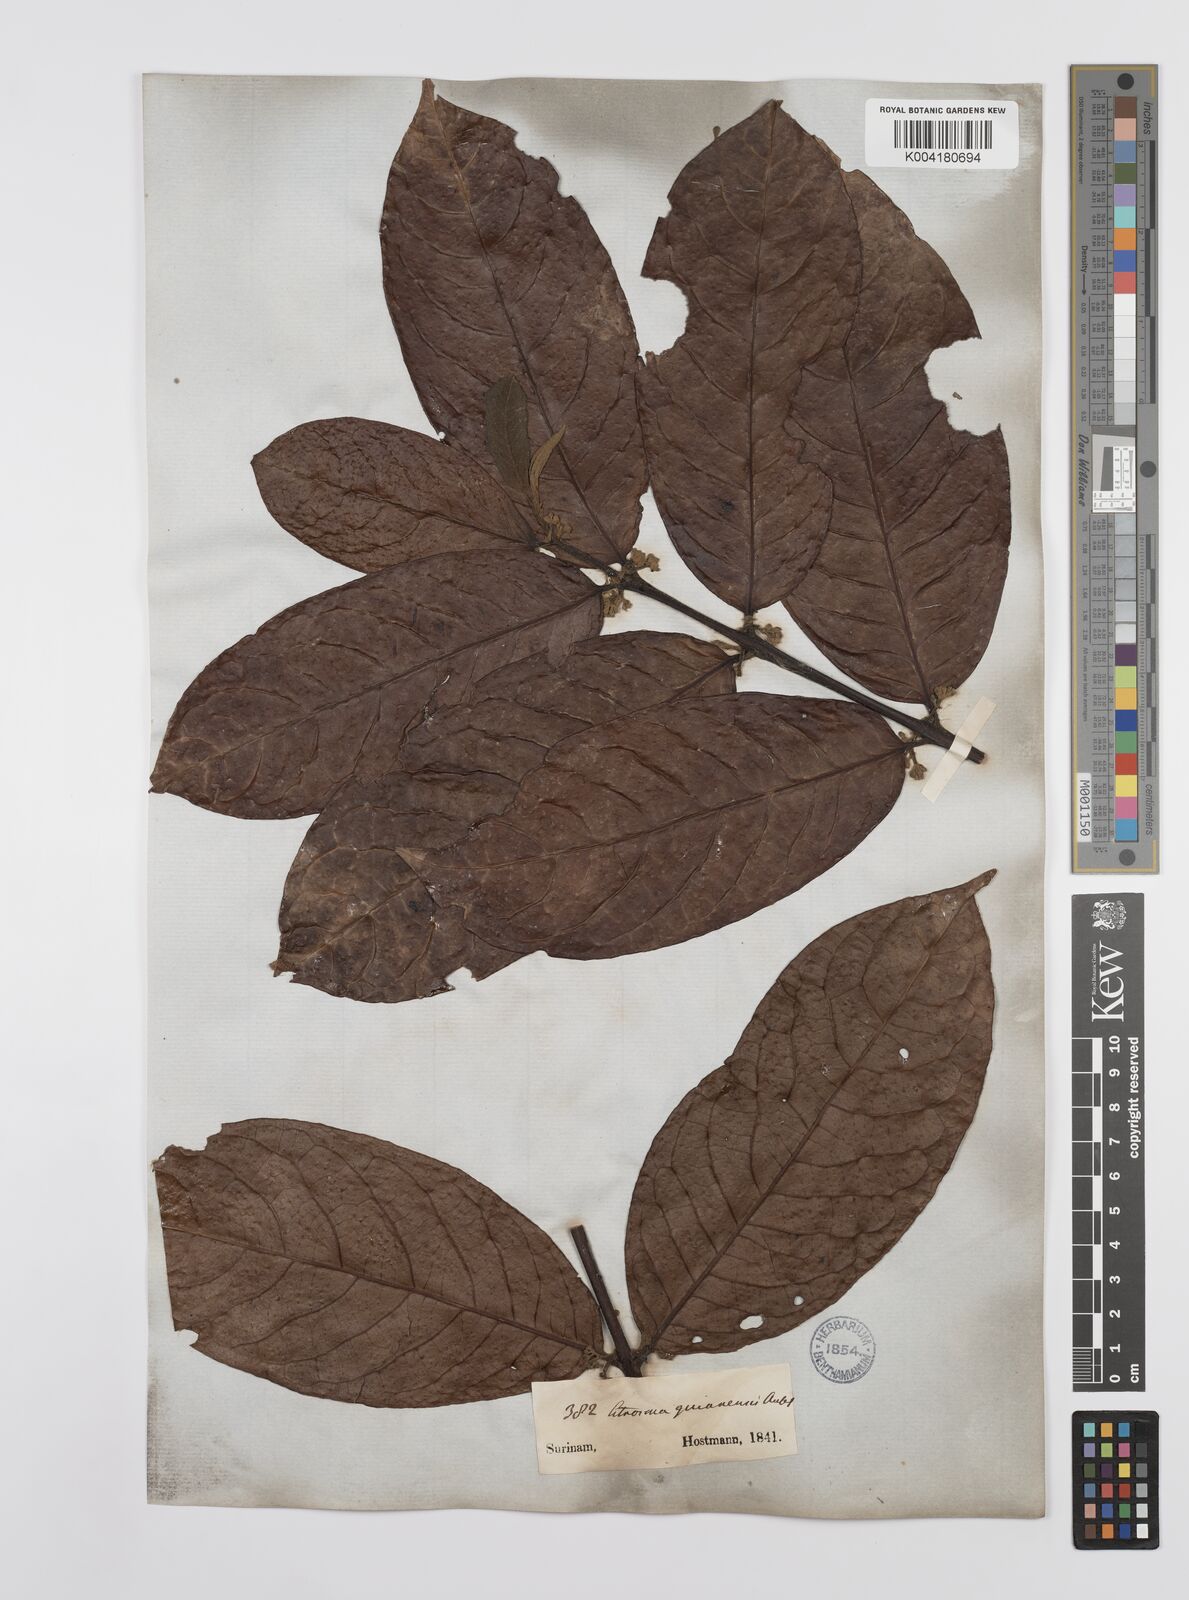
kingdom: Plantae
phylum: Tracheophyta
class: Magnoliopsida
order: Laurales
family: Siparunaceae
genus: Siparuna
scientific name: Siparuna guianensis
